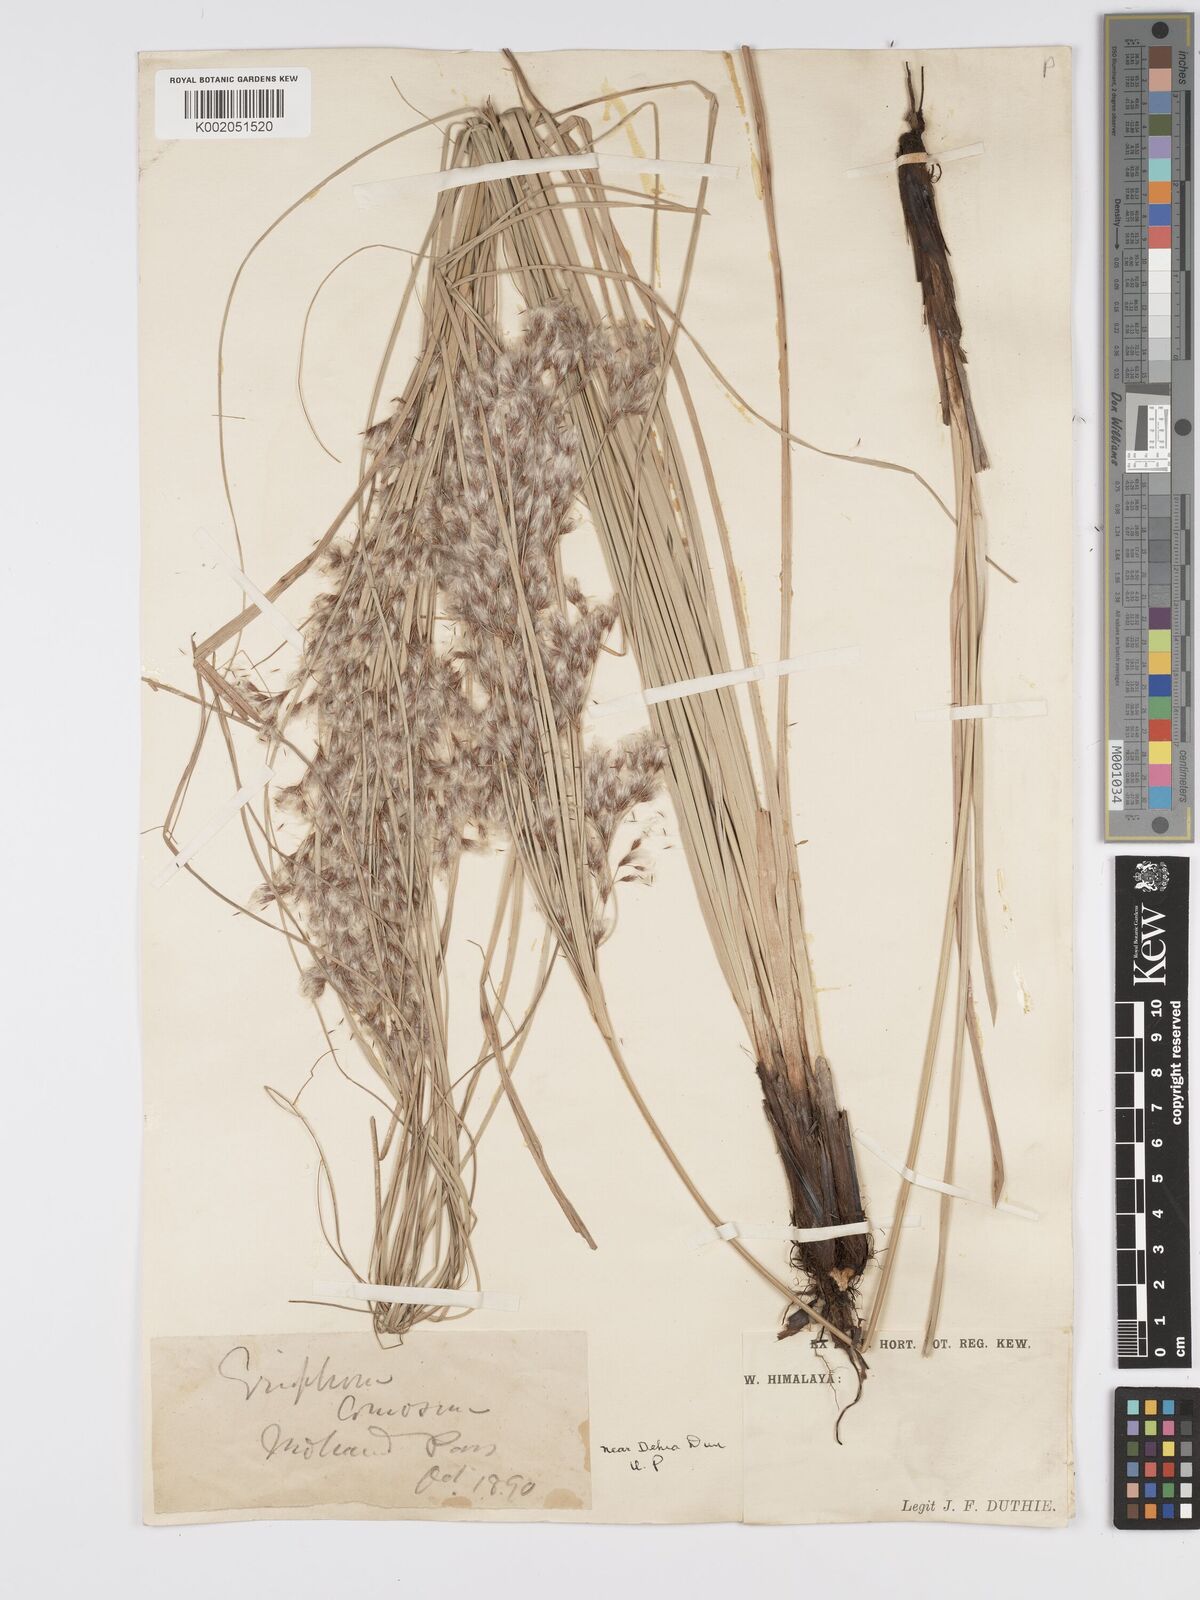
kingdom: Plantae
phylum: Tracheophyta
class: Liliopsida
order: Poales
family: Cyperaceae
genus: Erioscirpus
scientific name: Erioscirpus comosus
